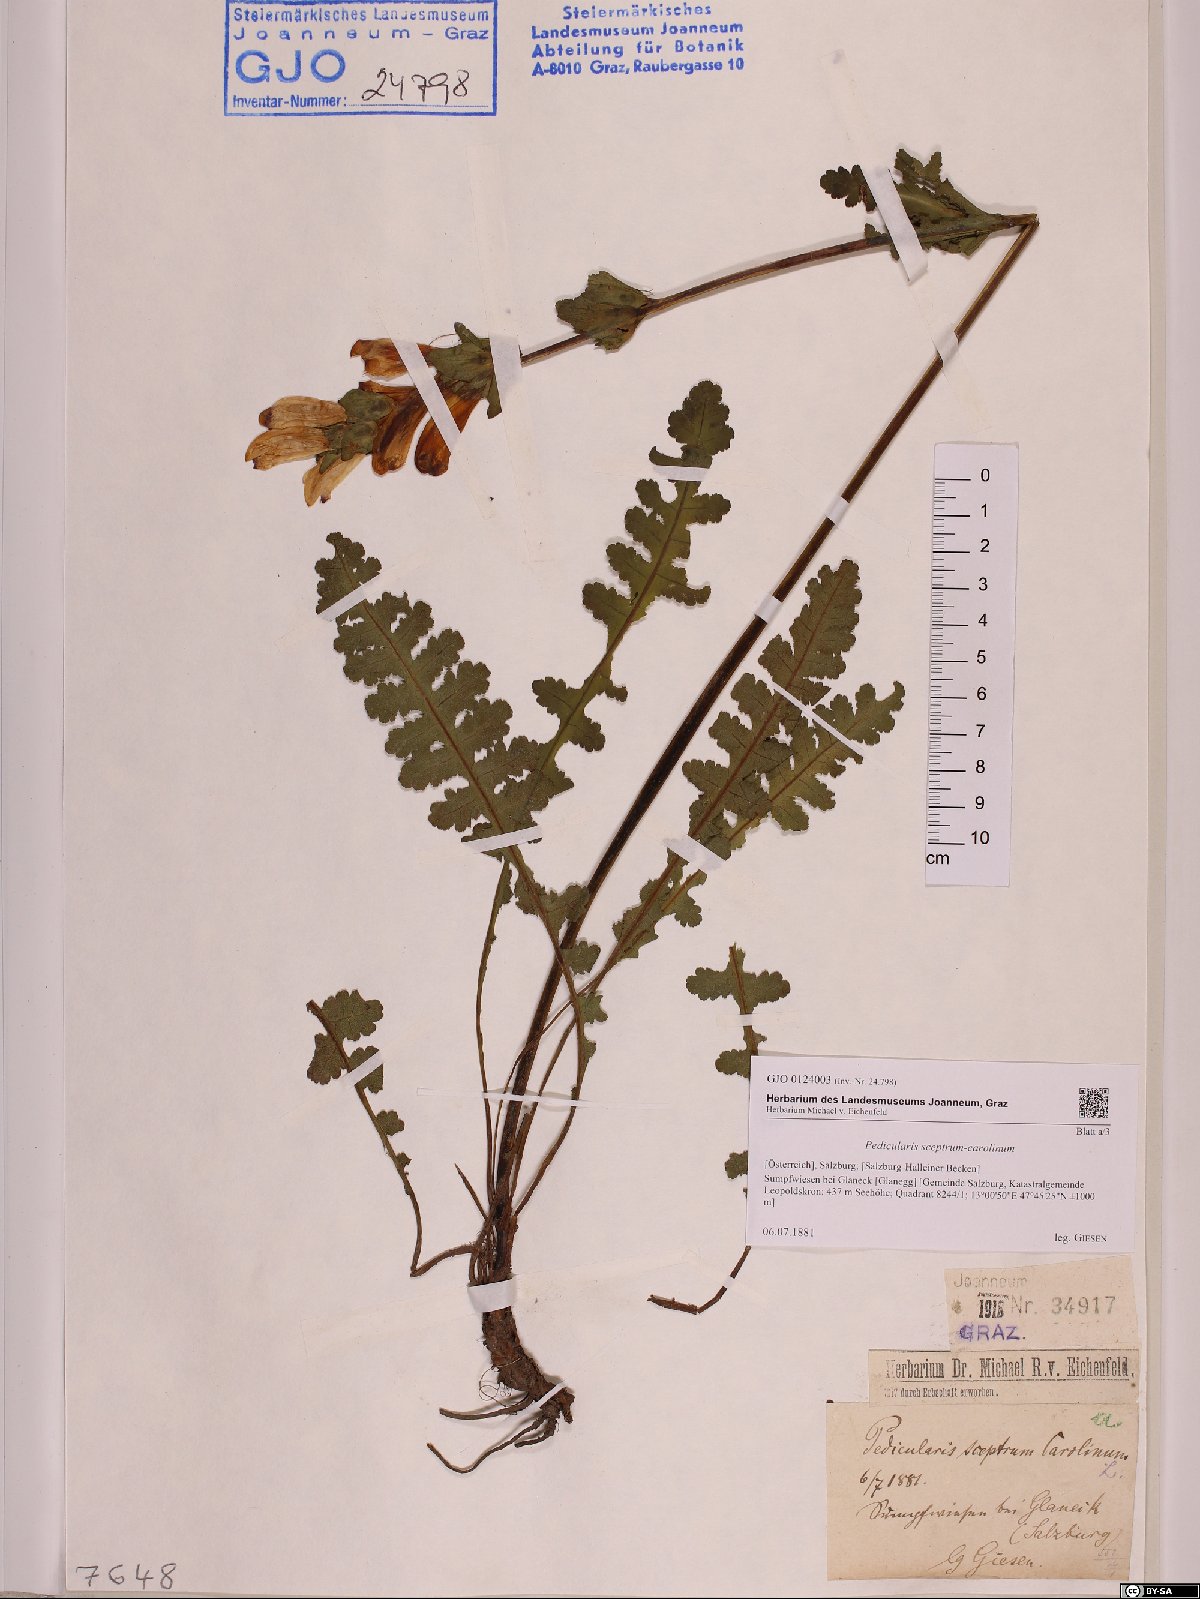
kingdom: Plantae
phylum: Tracheophyta
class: Magnoliopsida
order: Lamiales
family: Orobanchaceae
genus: Pedicularis
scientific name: Pedicularis sceptrum-carolinum
